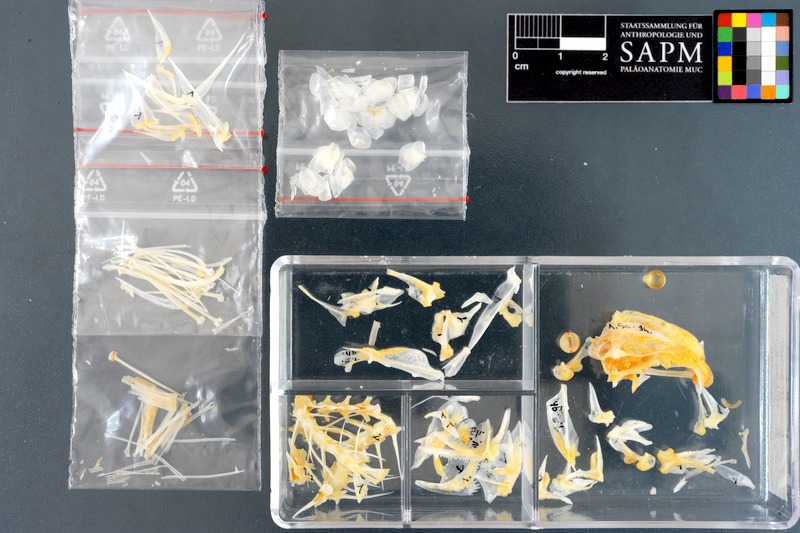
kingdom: Animalia
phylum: Chordata
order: Perciformes
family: Nemipteridae
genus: Scolopsis
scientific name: Scolopsis ghanam
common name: Arabian monocle bream
